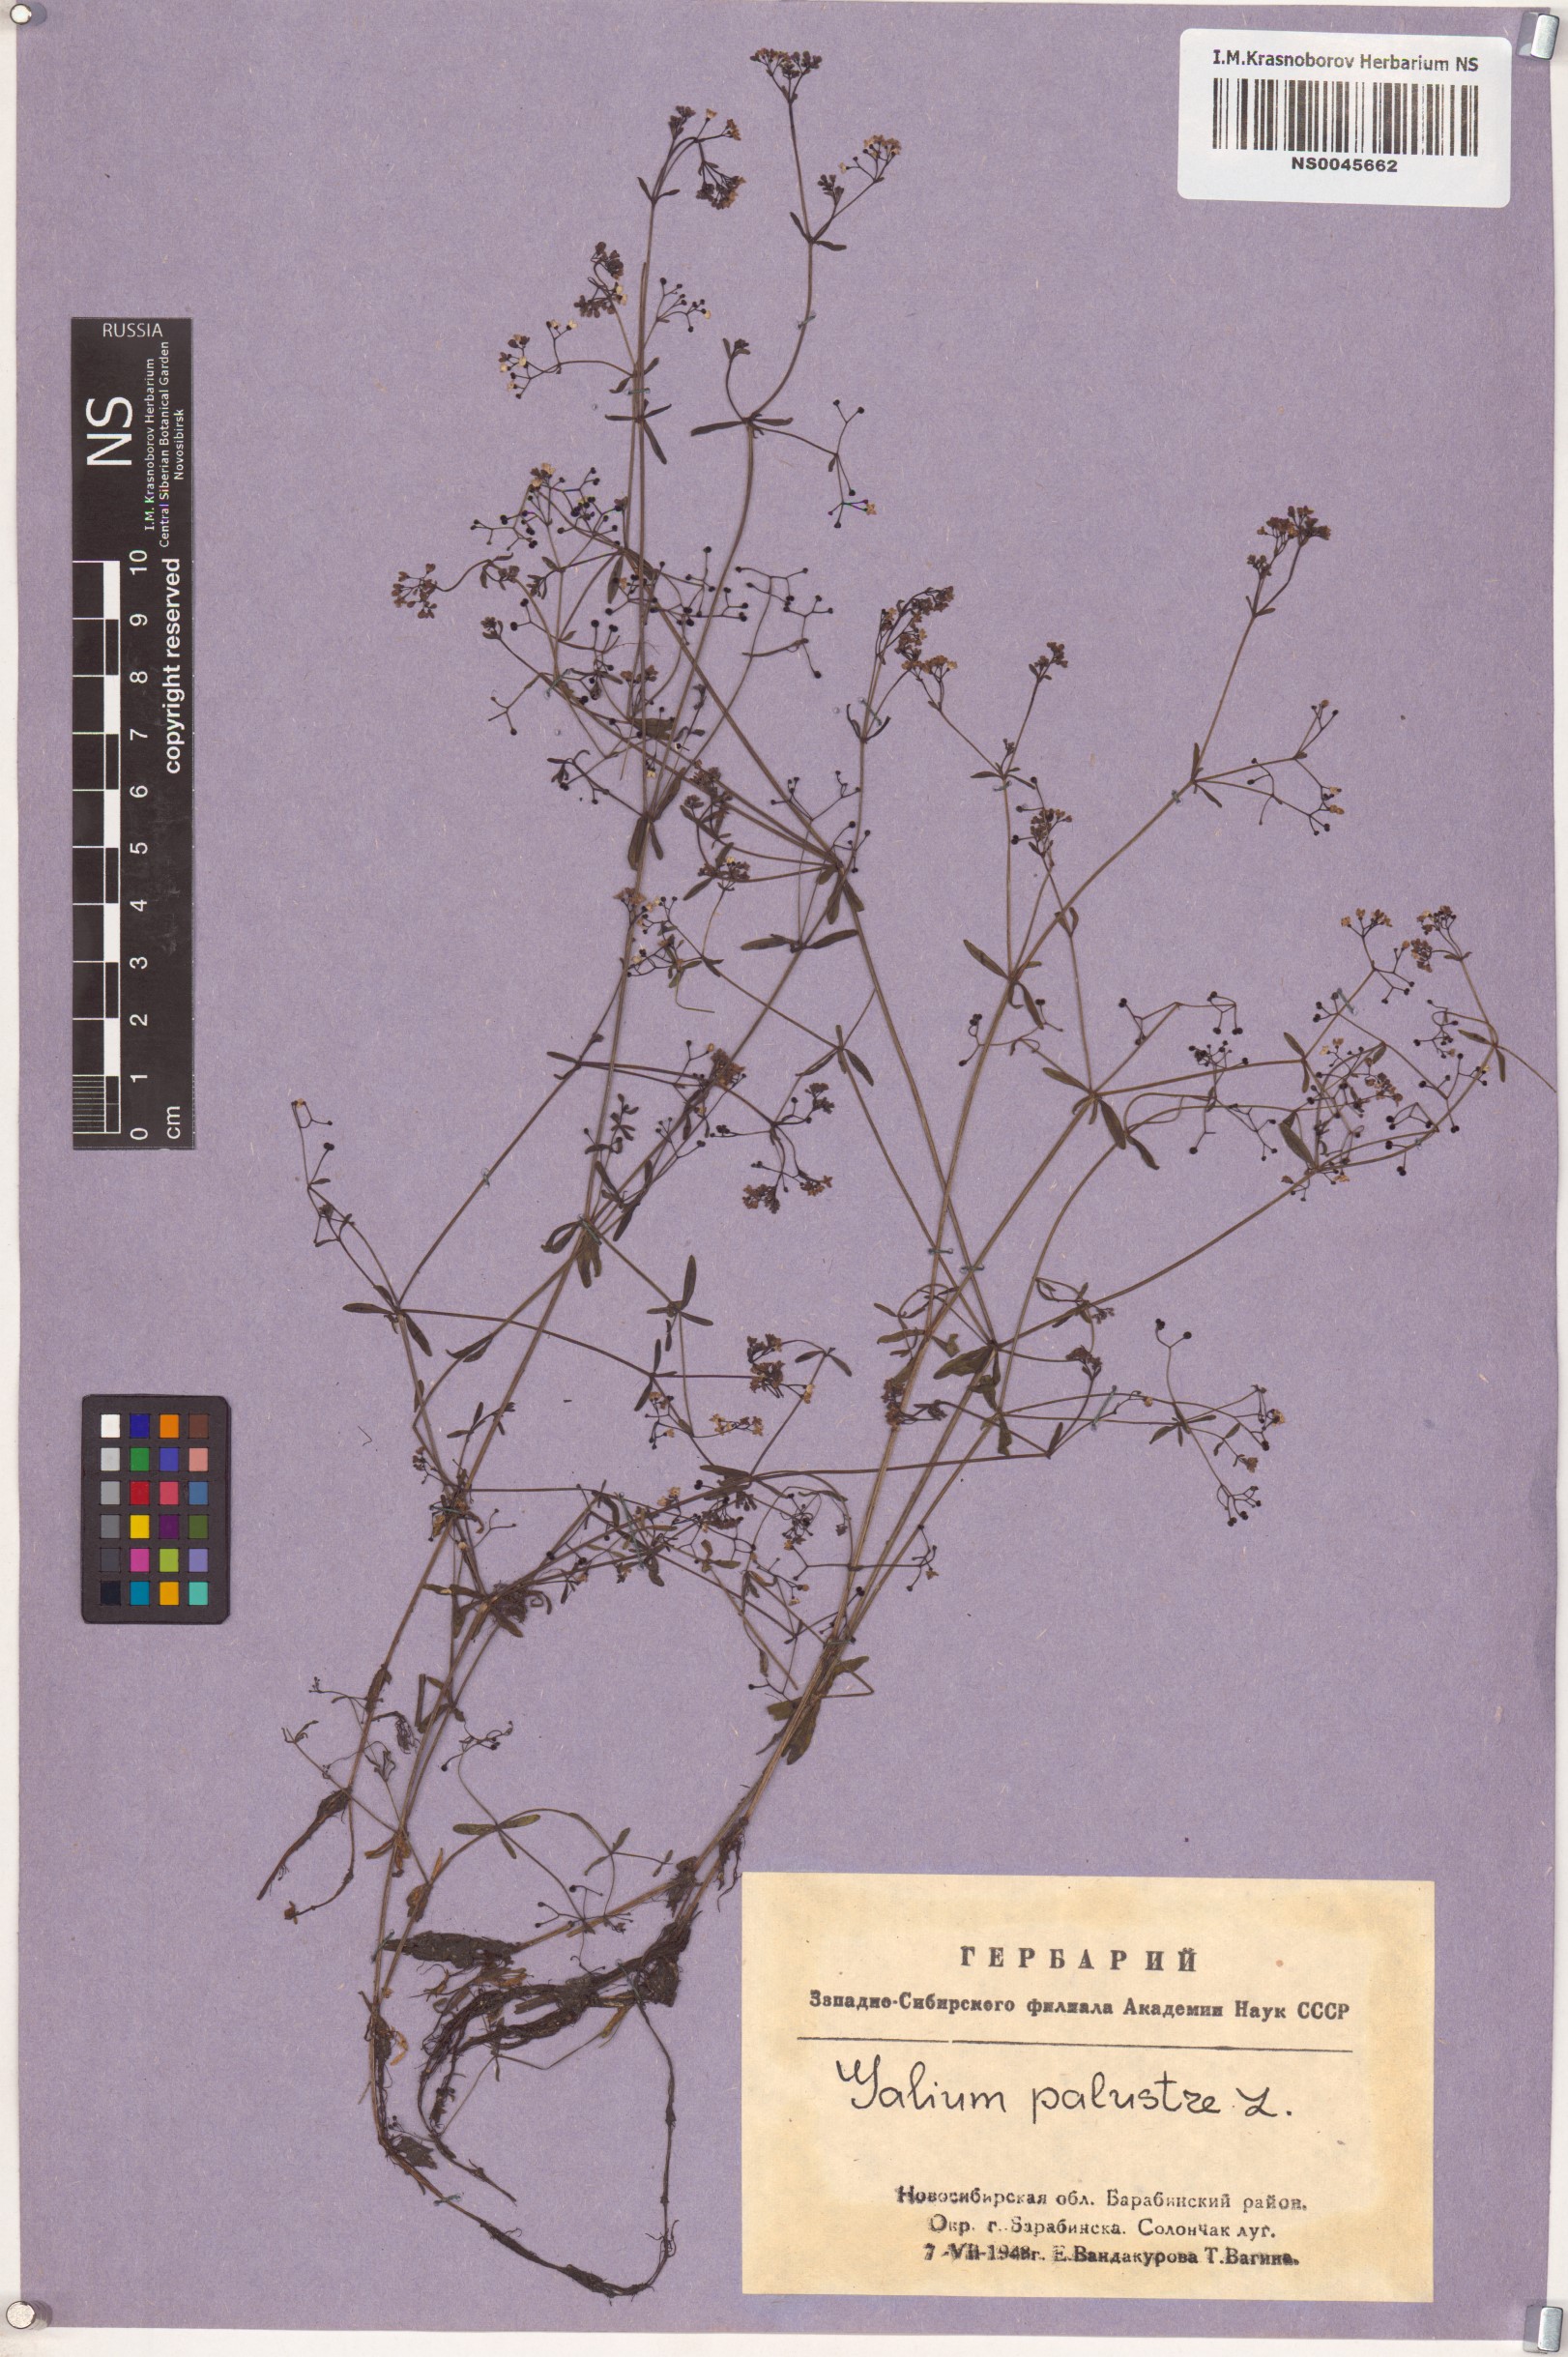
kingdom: Plantae
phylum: Tracheophyta
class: Magnoliopsida
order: Gentianales
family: Rubiaceae
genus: Galium
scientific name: Galium palustre
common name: Common marsh-bedstraw
